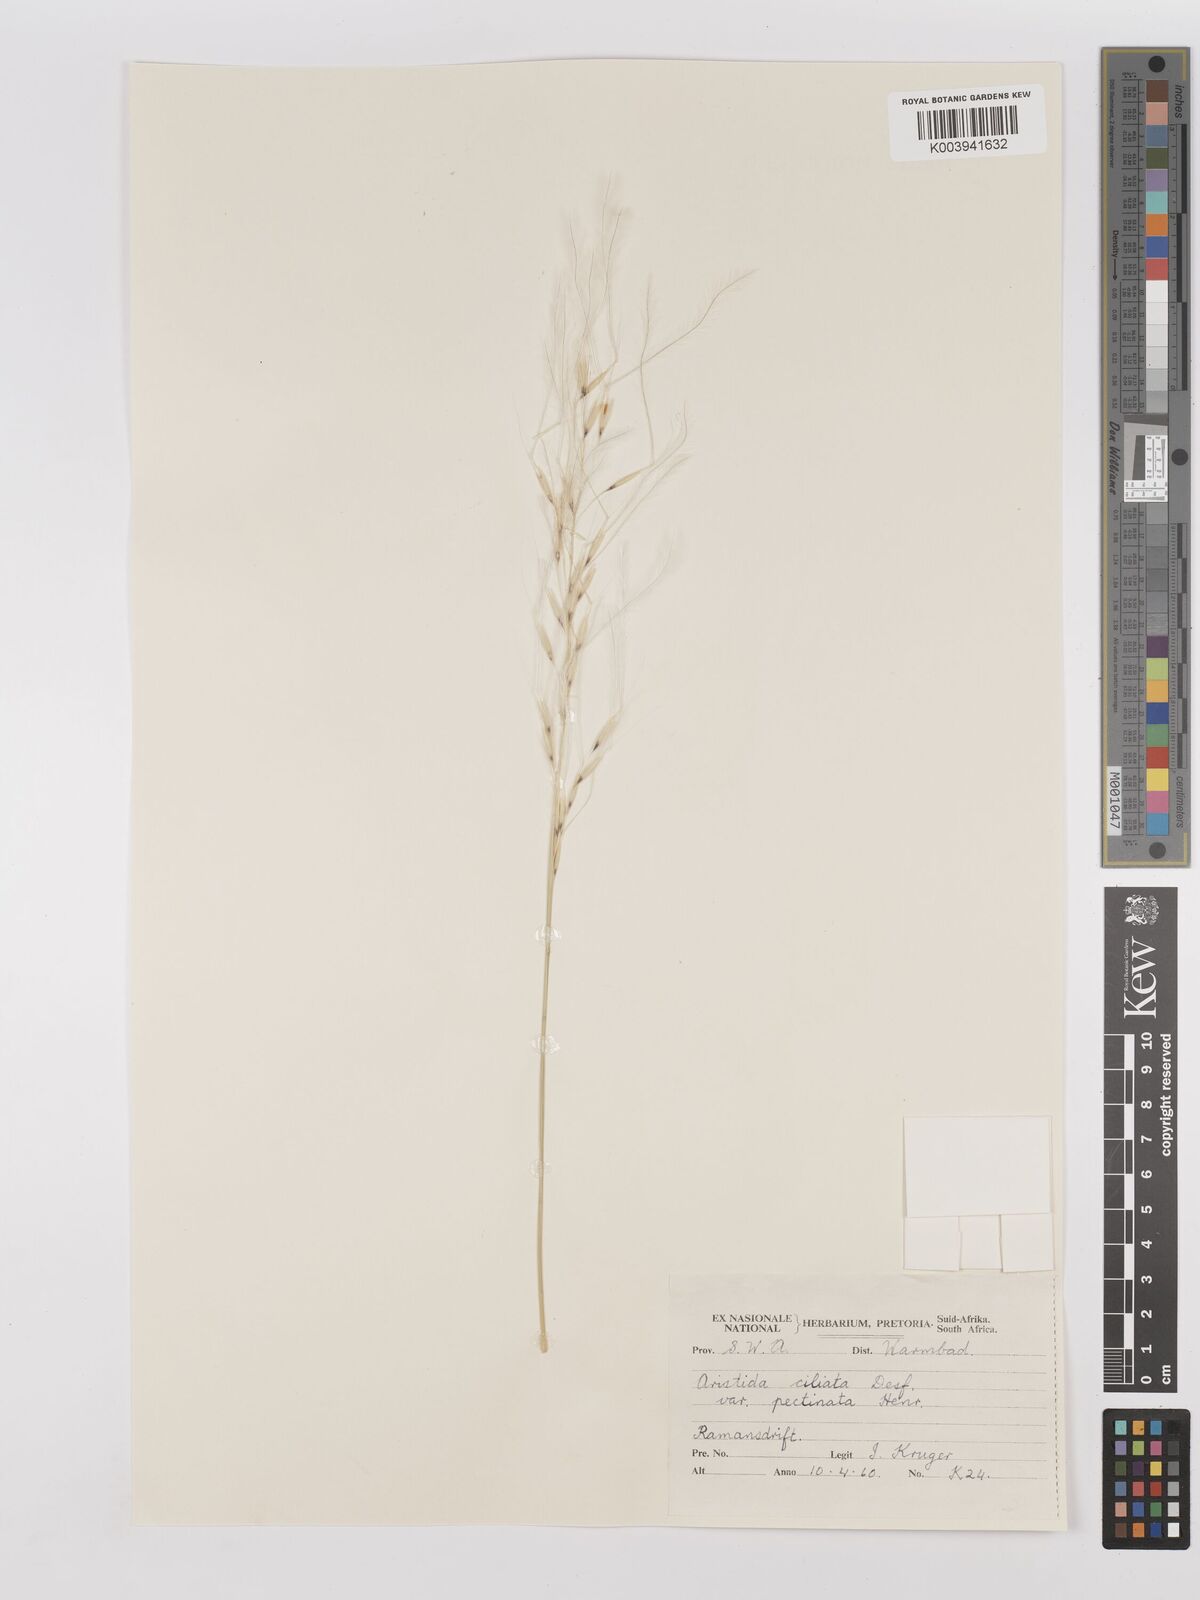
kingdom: Plantae
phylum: Tracheophyta
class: Liliopsida
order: Poales
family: Poaceae
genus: Stipagrostis
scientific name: Stipagrostis ciliata
